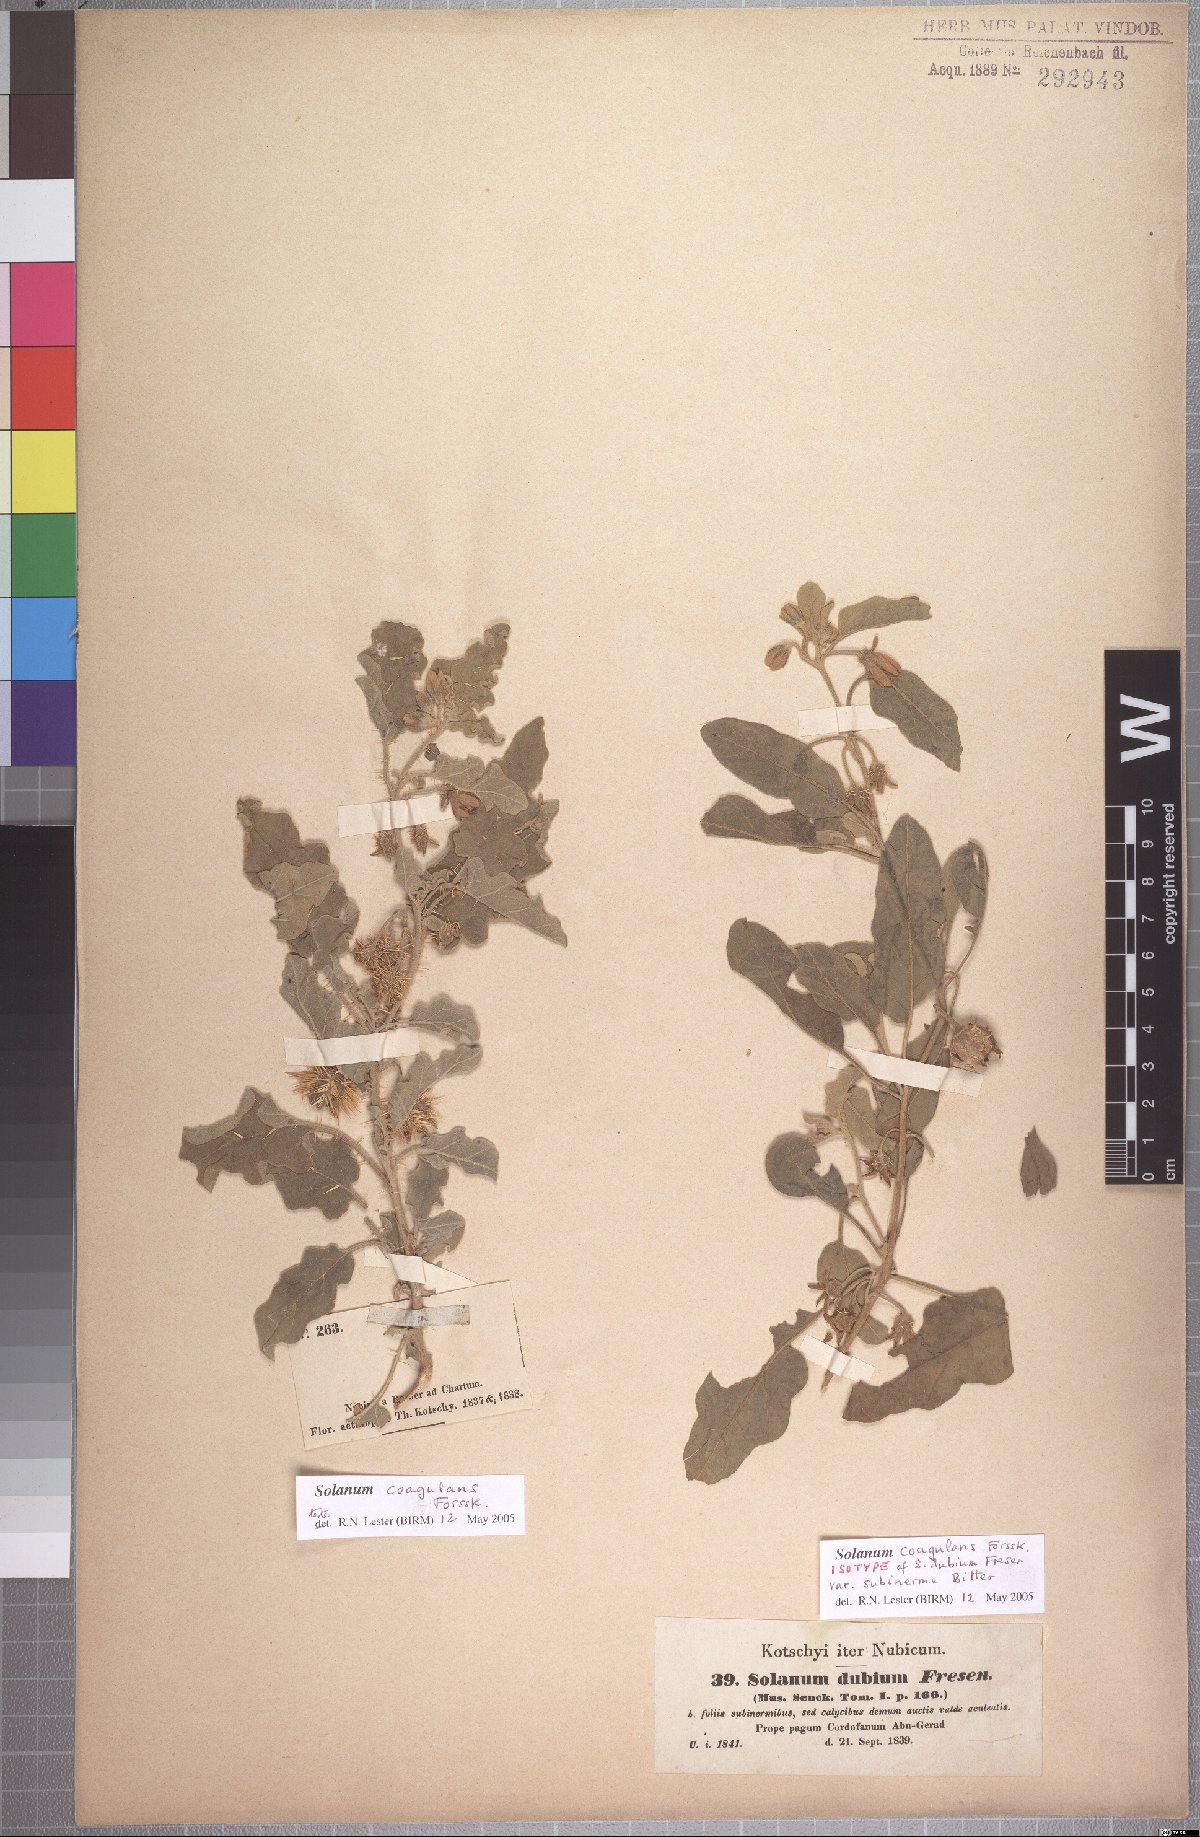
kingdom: Plantae
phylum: Tracheophyta
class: Magnoliopsida
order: Solanales
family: Solanaceae
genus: Solanum
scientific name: Solanum coagulans
